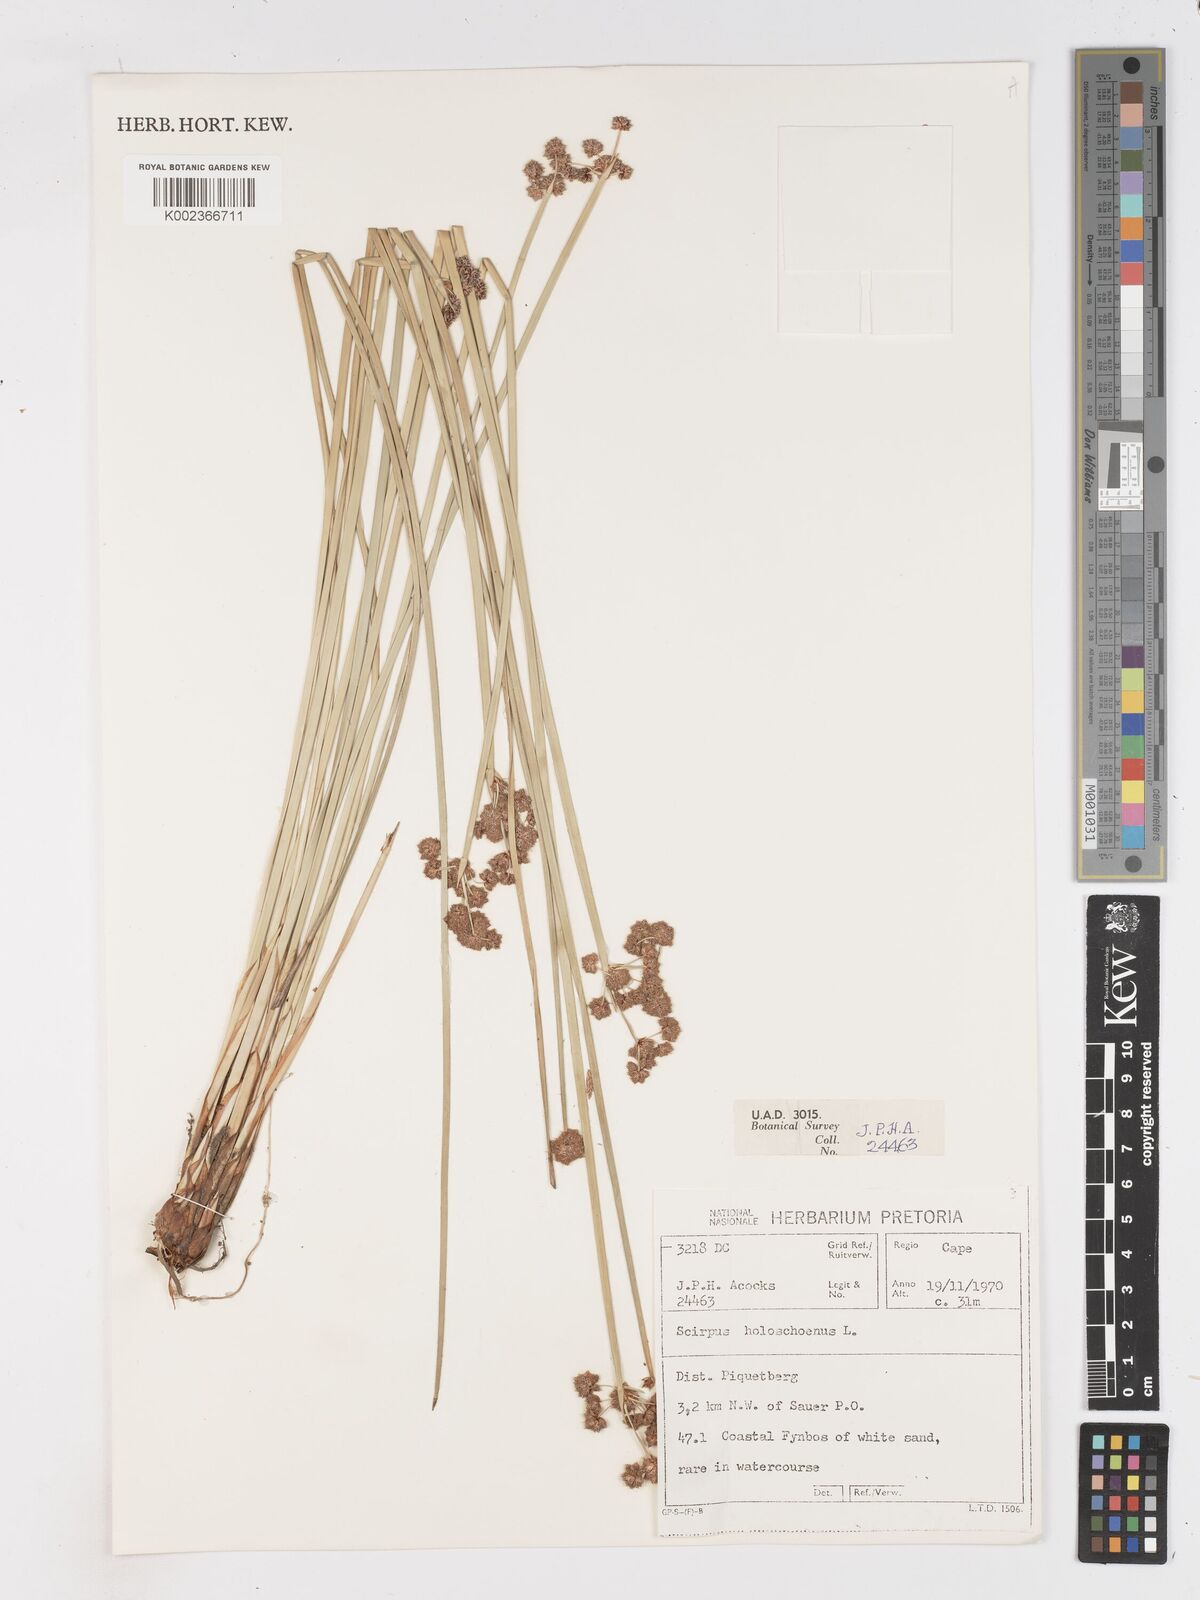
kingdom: Plantae
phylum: Tracheophyta
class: Liliopsida
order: Poales
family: Cyperaceae
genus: Scirpoides
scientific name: Scirpoides holoschoenus
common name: Round-headed club-rush
